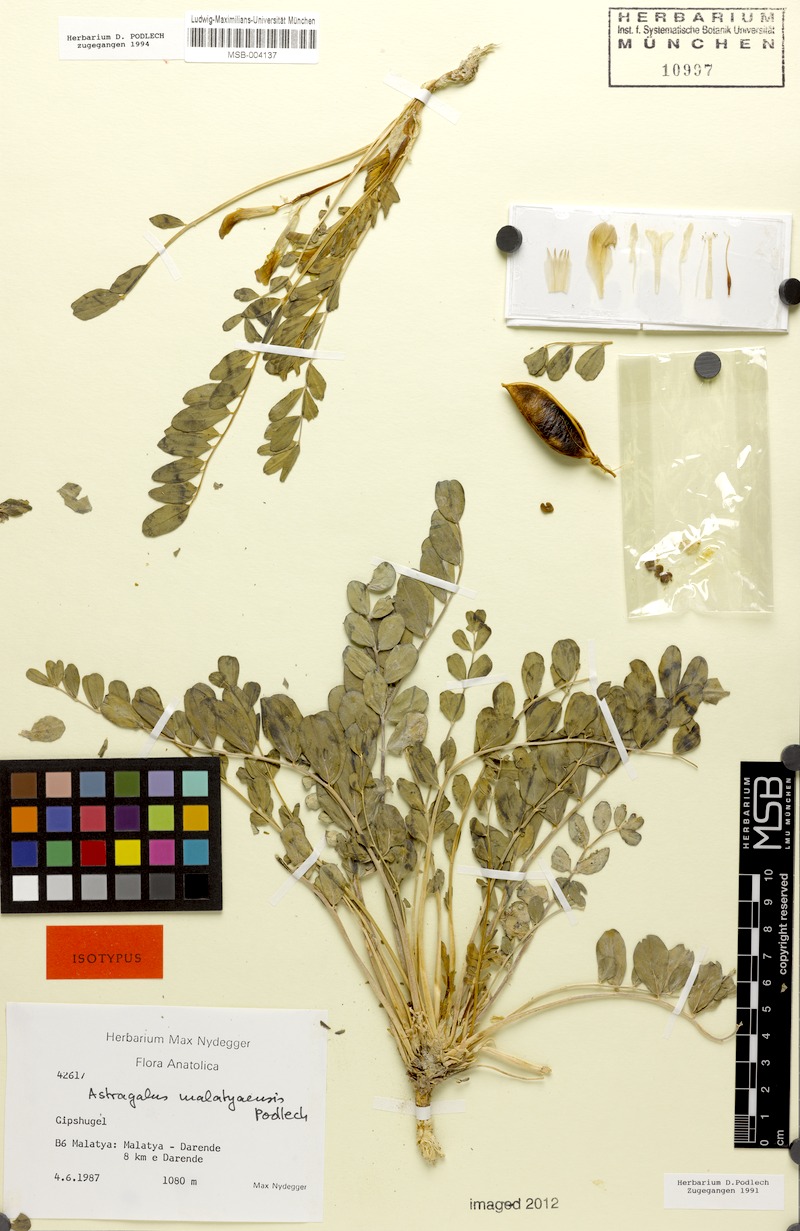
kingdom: Plantae
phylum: Tracheophyta
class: Magnoliopsida
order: Fabales
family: Fabaceae
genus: Astragalus
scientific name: Astragalus malatyaensis
